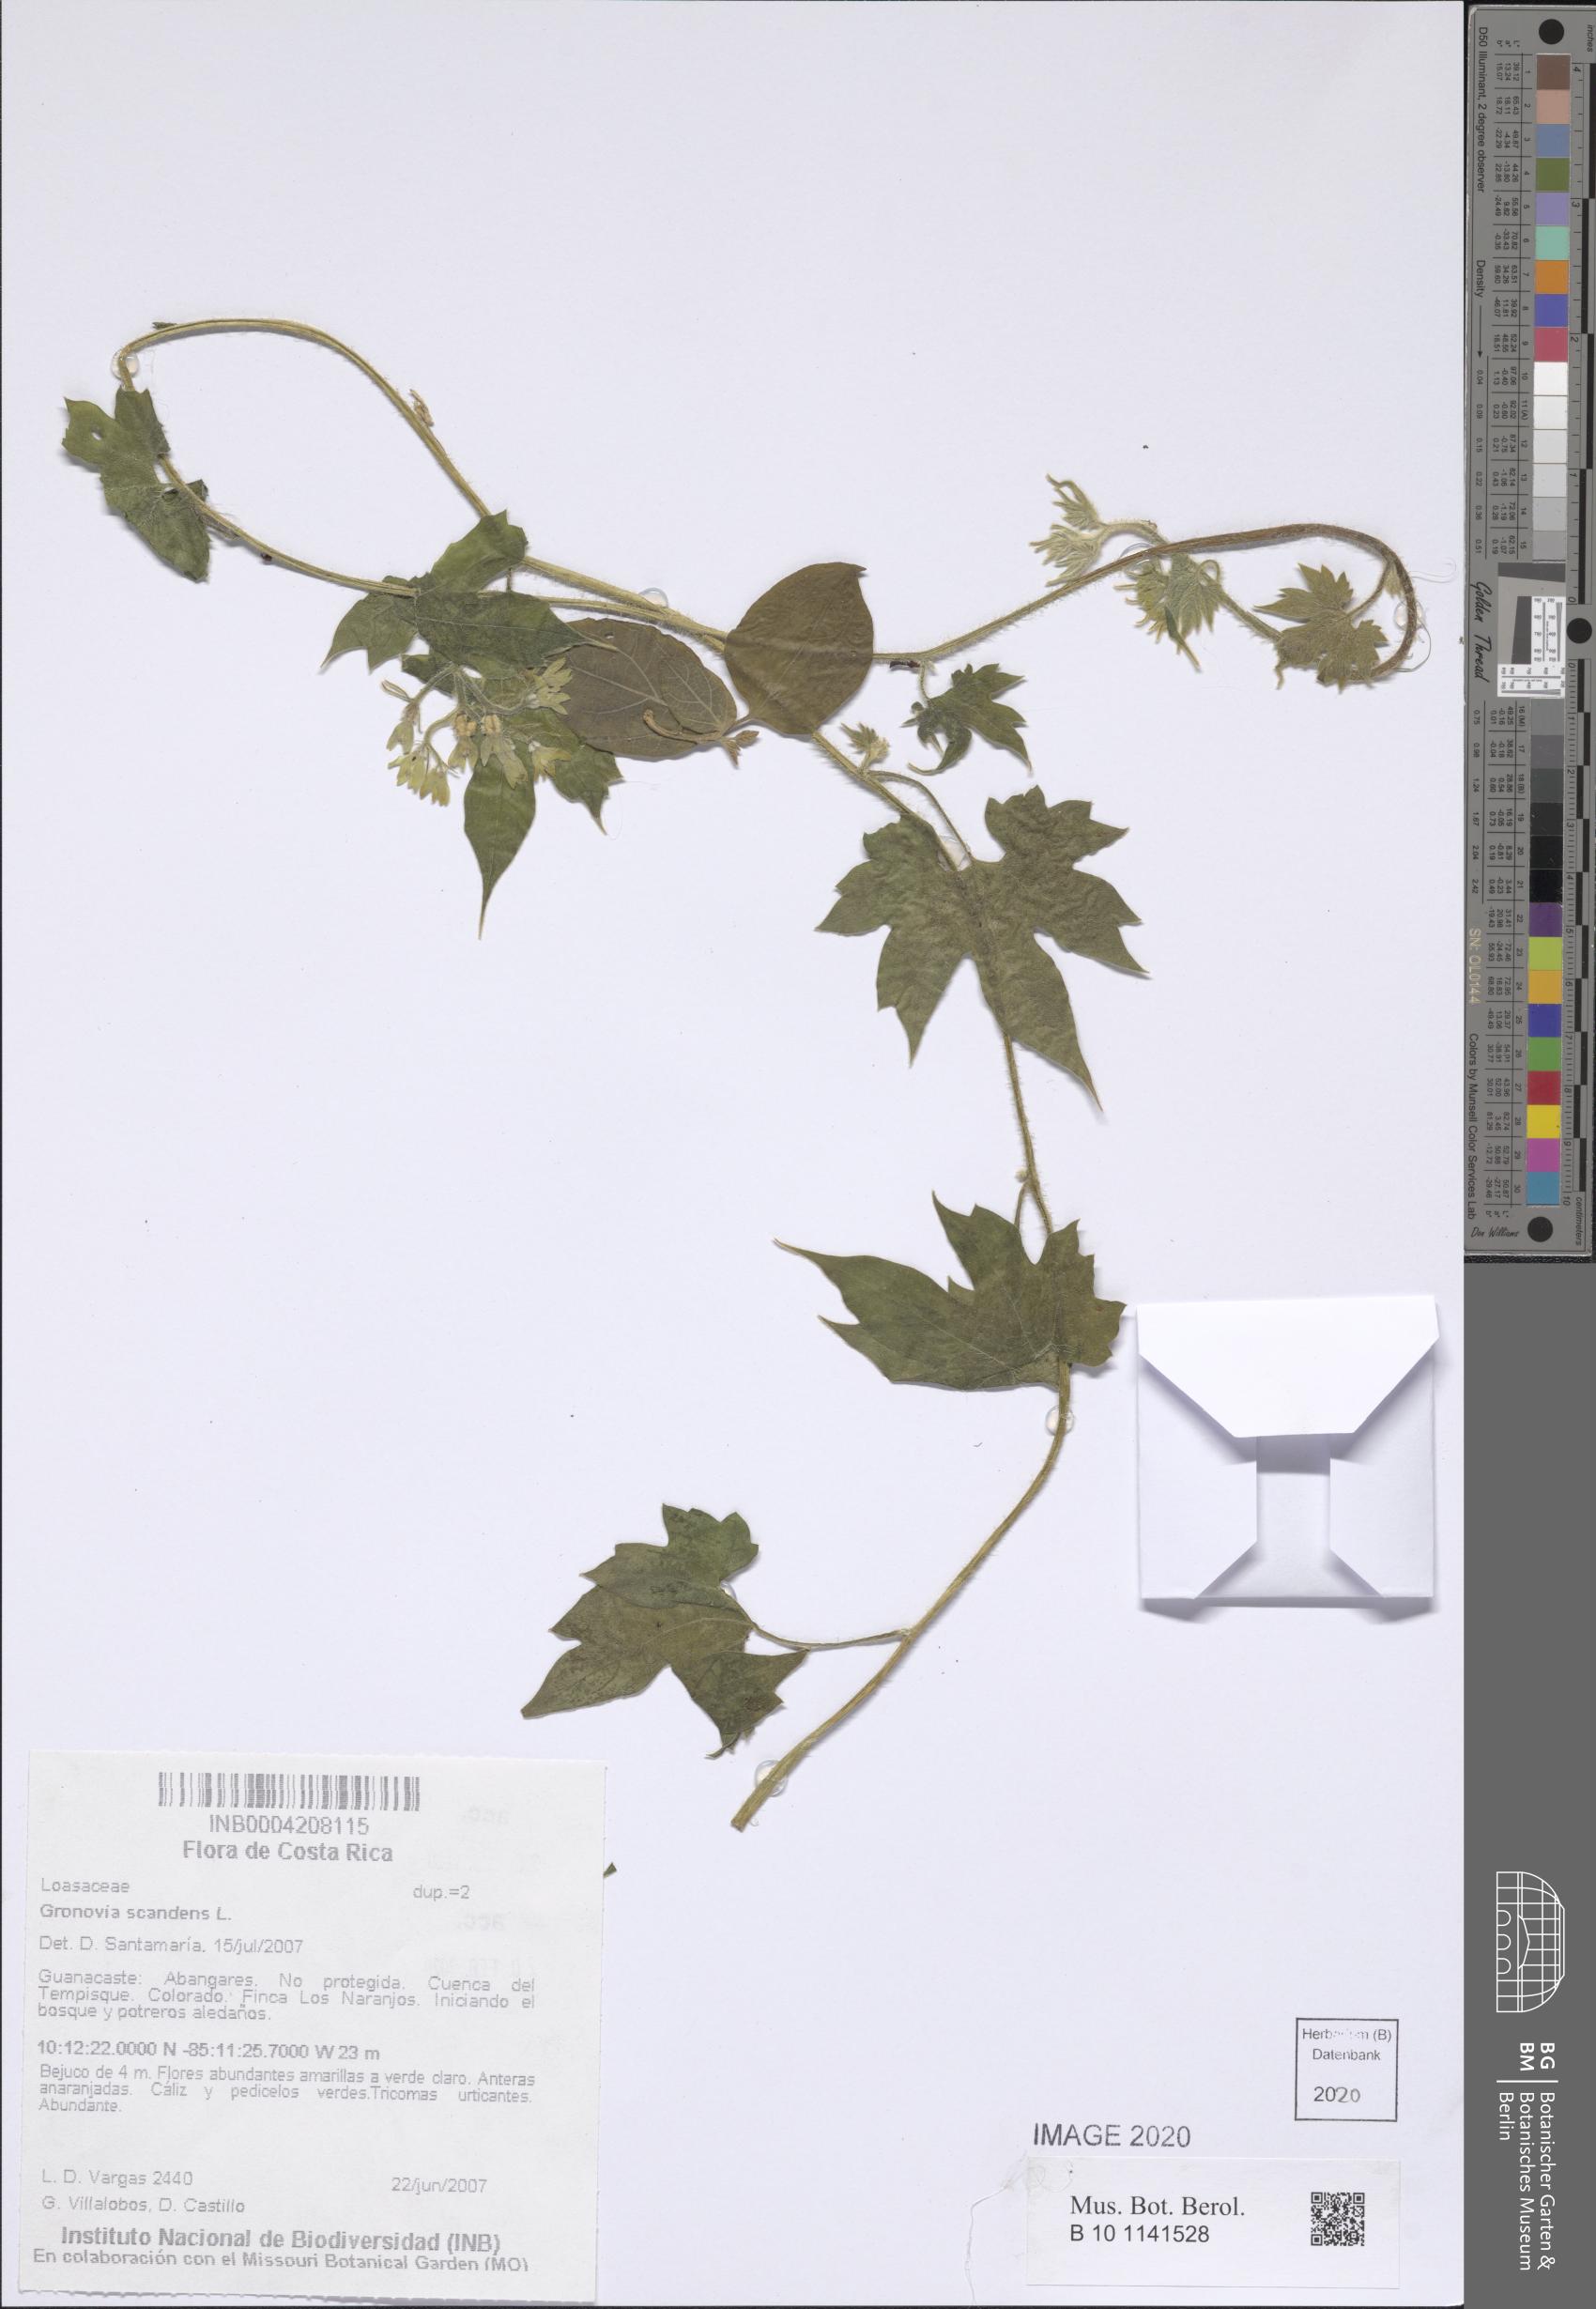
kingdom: Plantae
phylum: Tracheophyta
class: Magnoliopsida
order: Cornales
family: Loasaceae
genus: Gronovia
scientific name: Gronovia scandens
